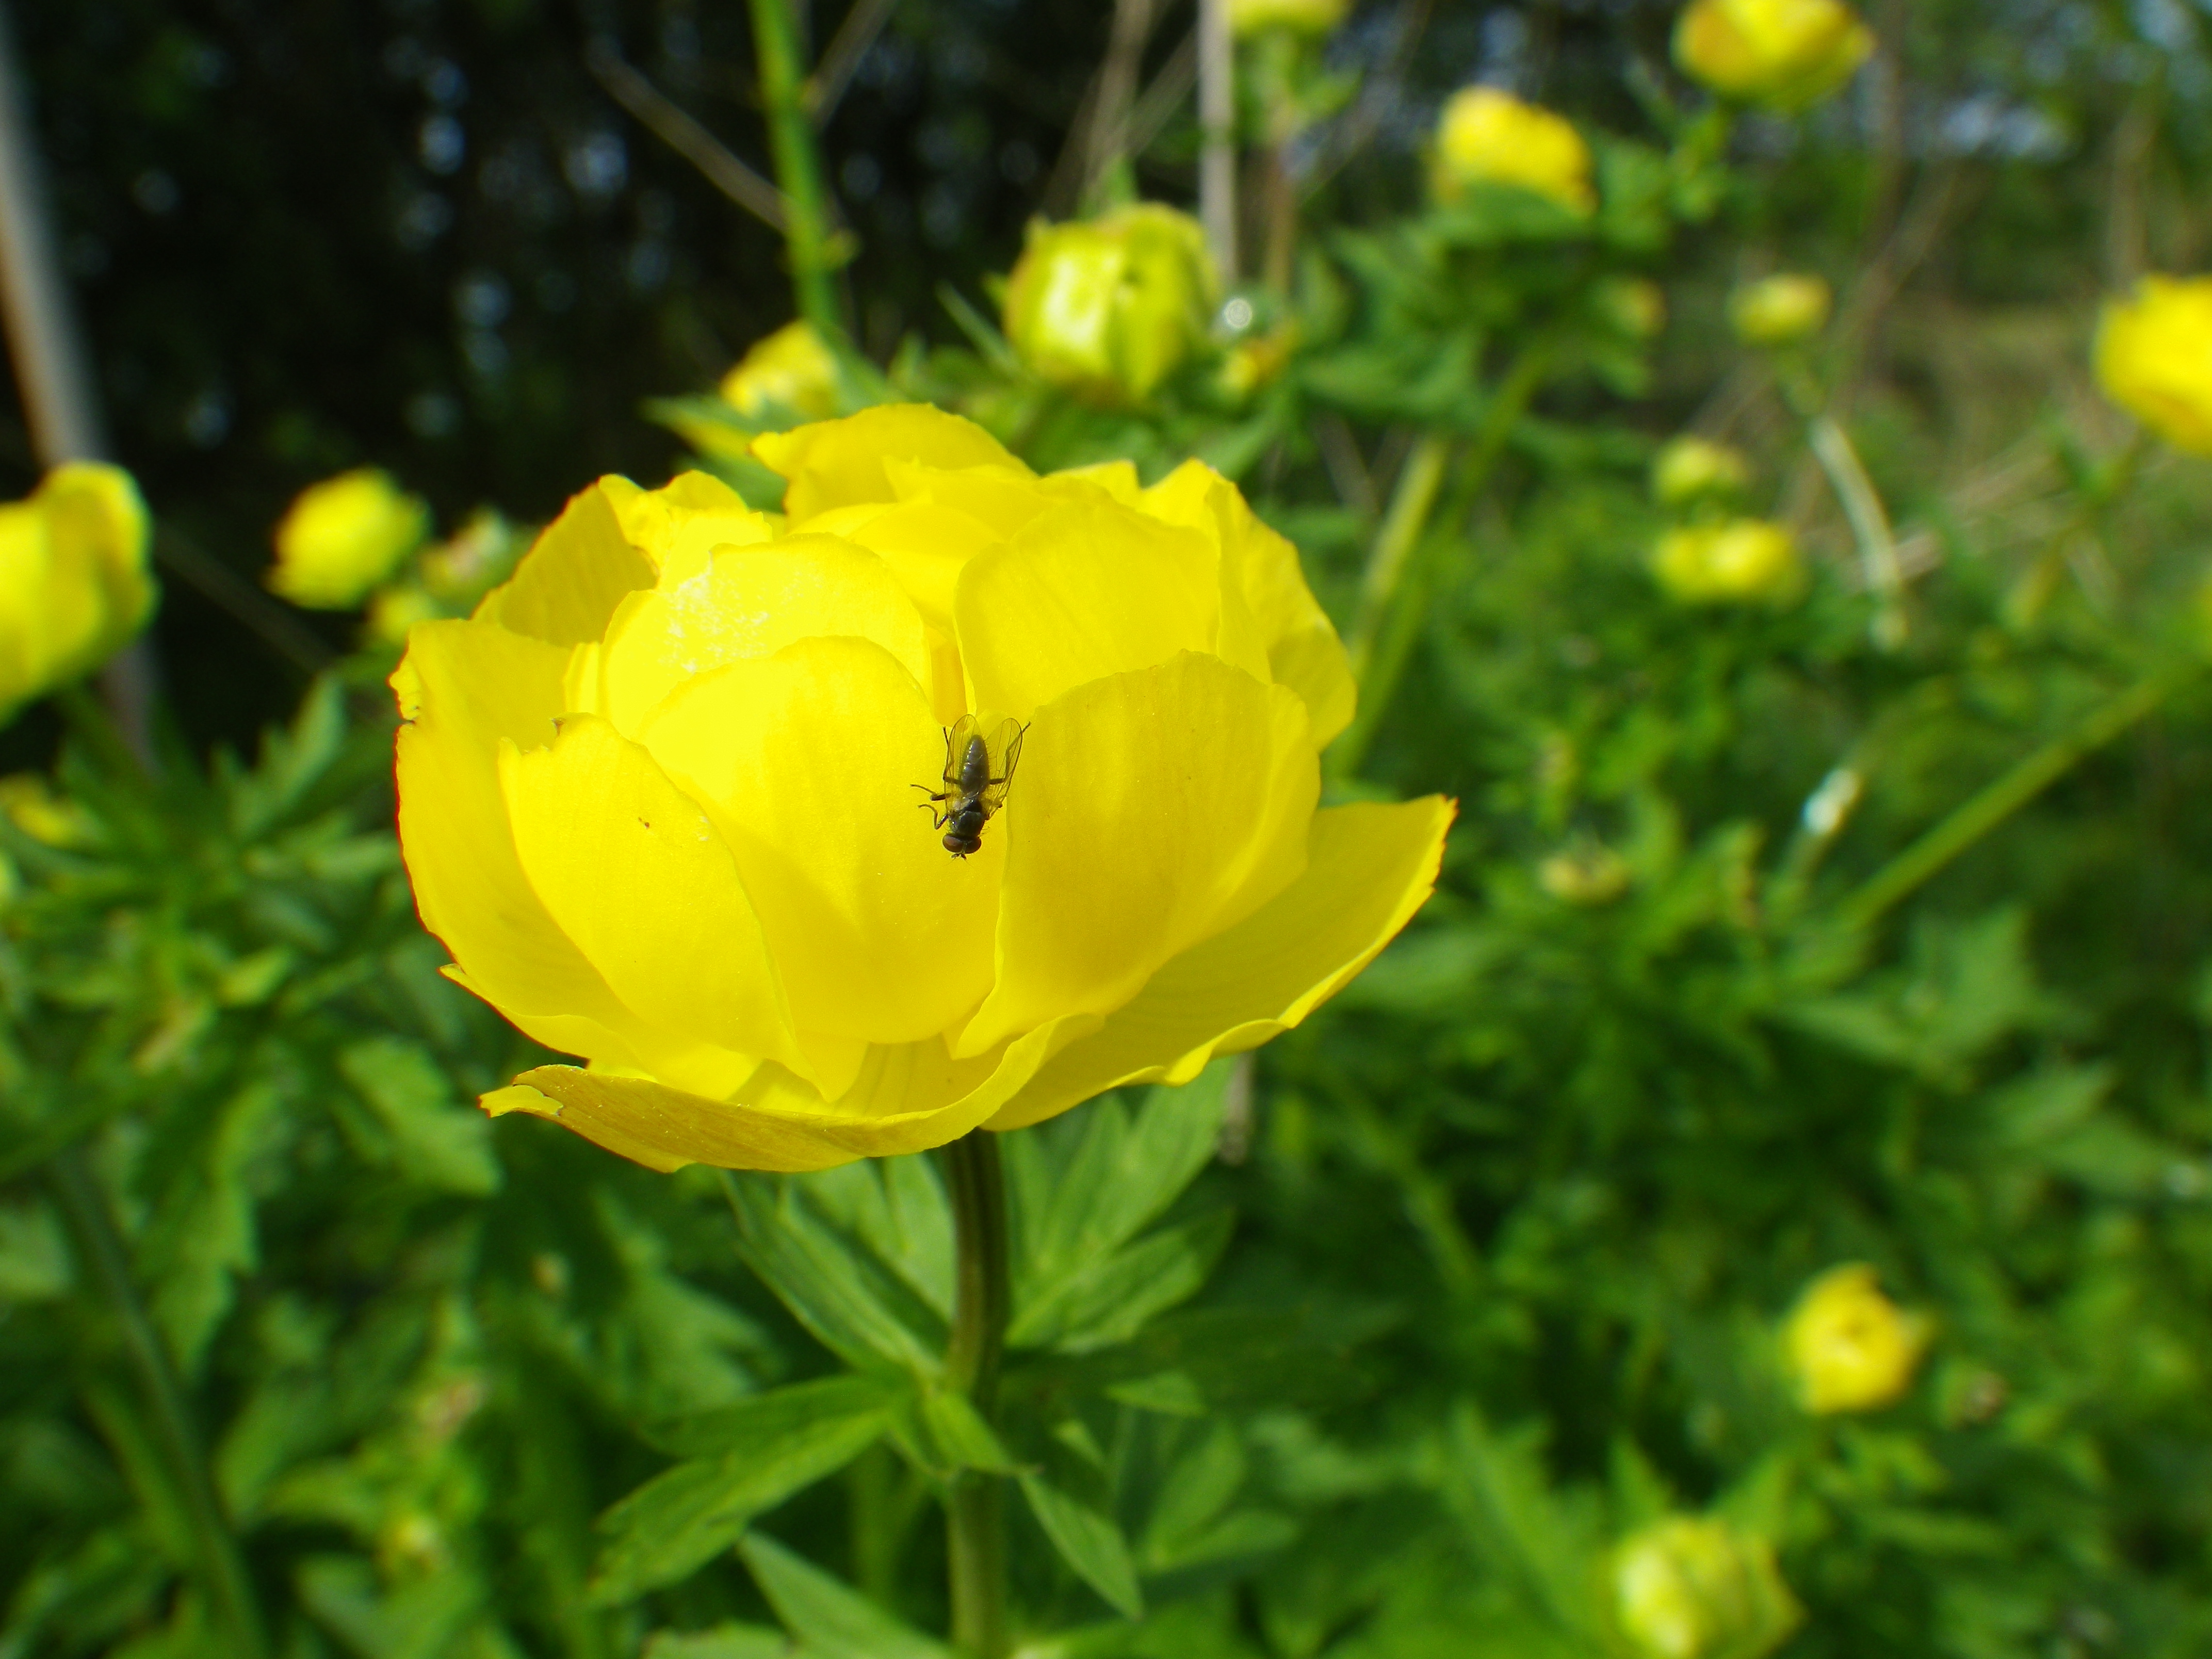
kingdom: Plantae
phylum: Tracheophyta
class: Magnoliopsida
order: Ranunculales
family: Ranunculaceae
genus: Trollius
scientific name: Trollius europaeus
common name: Engblomme
